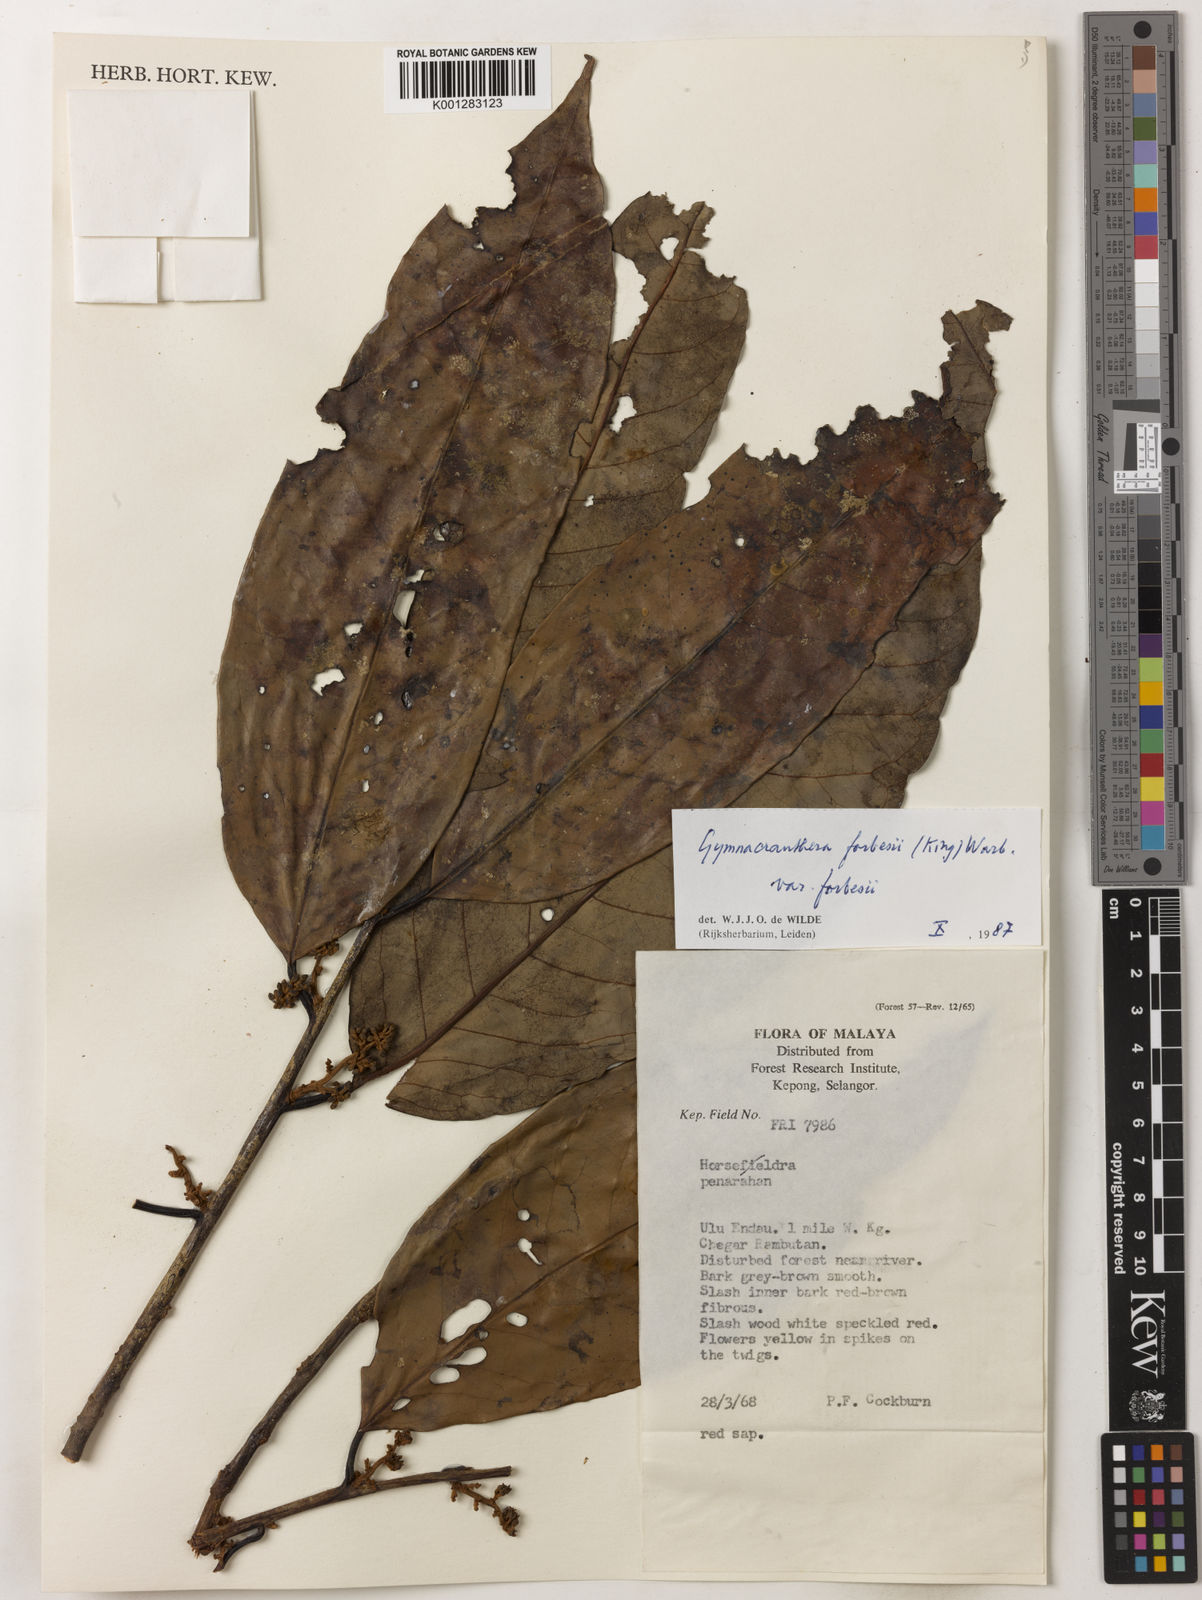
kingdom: Plantae
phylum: Tracheophyta
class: Magnoliopsida
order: Magnoliales
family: Myristicaceae
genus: Gymnacranthera
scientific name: Gymnacranthera forbesii
